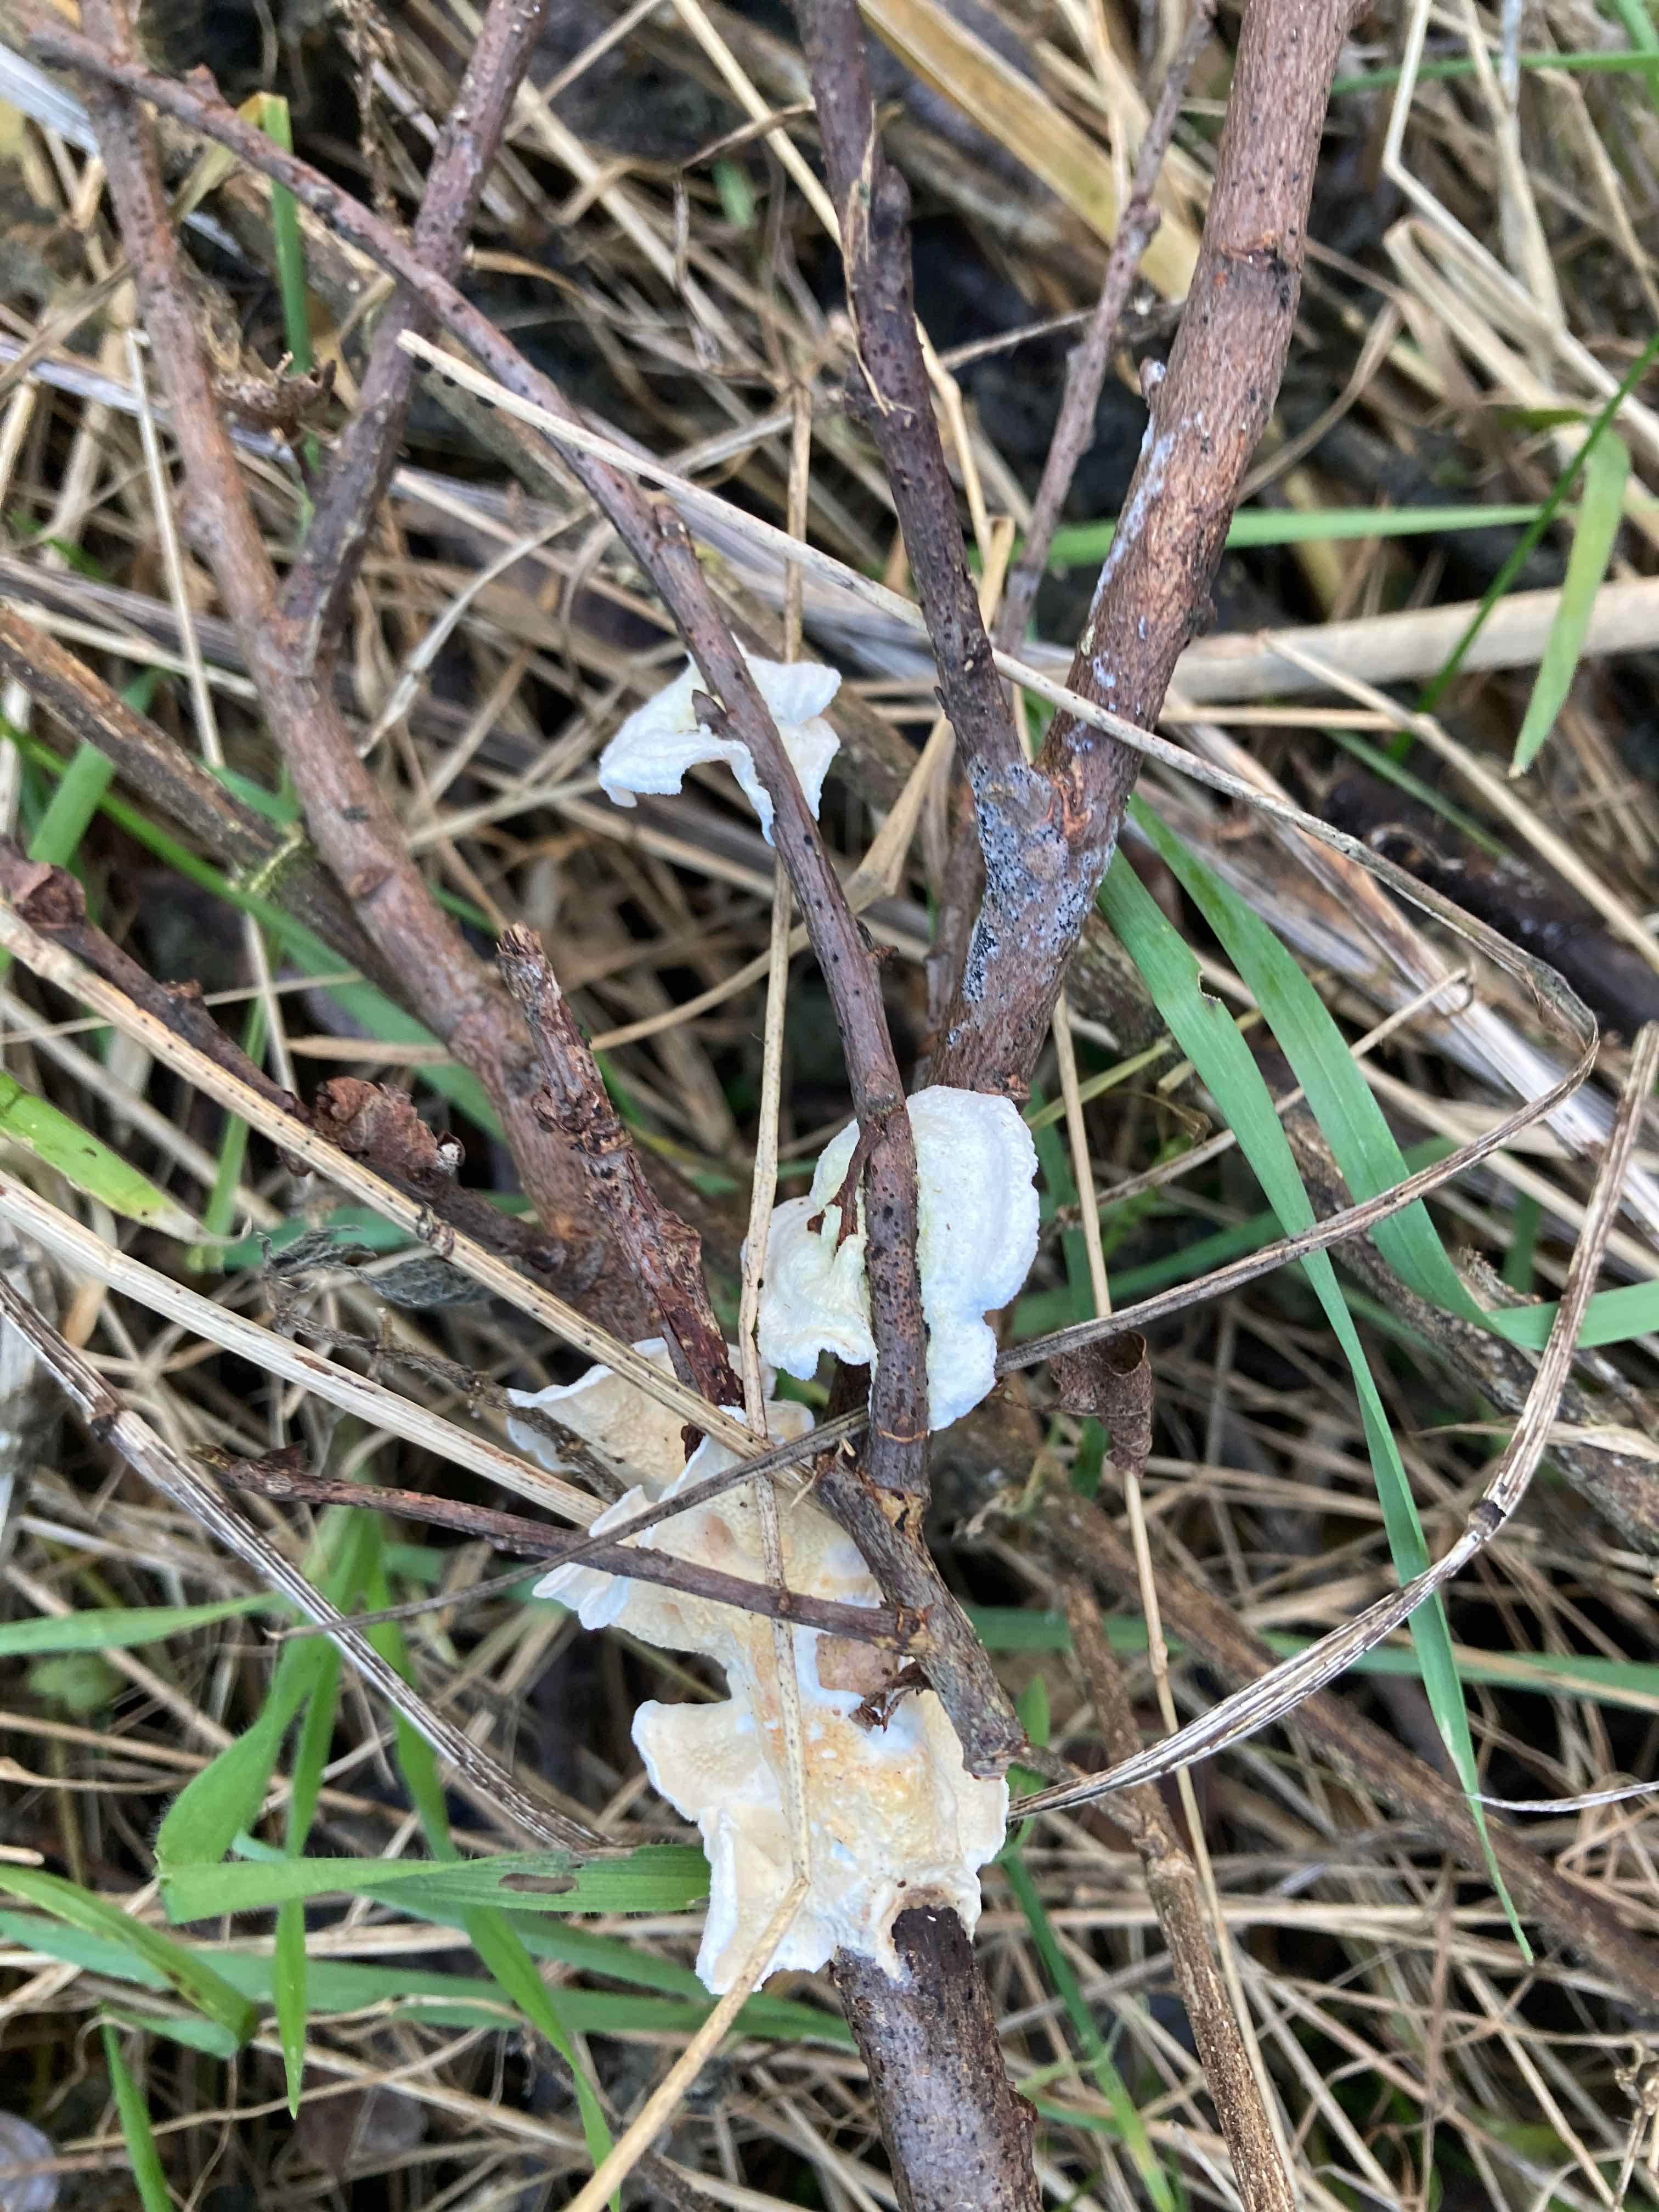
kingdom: Fungi
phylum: Basidiomycota
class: Agaricomycetes
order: Polyporales
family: Irpicaceae
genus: Byssomerulius
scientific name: Byssomerulius corium
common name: læder-åresvamp
